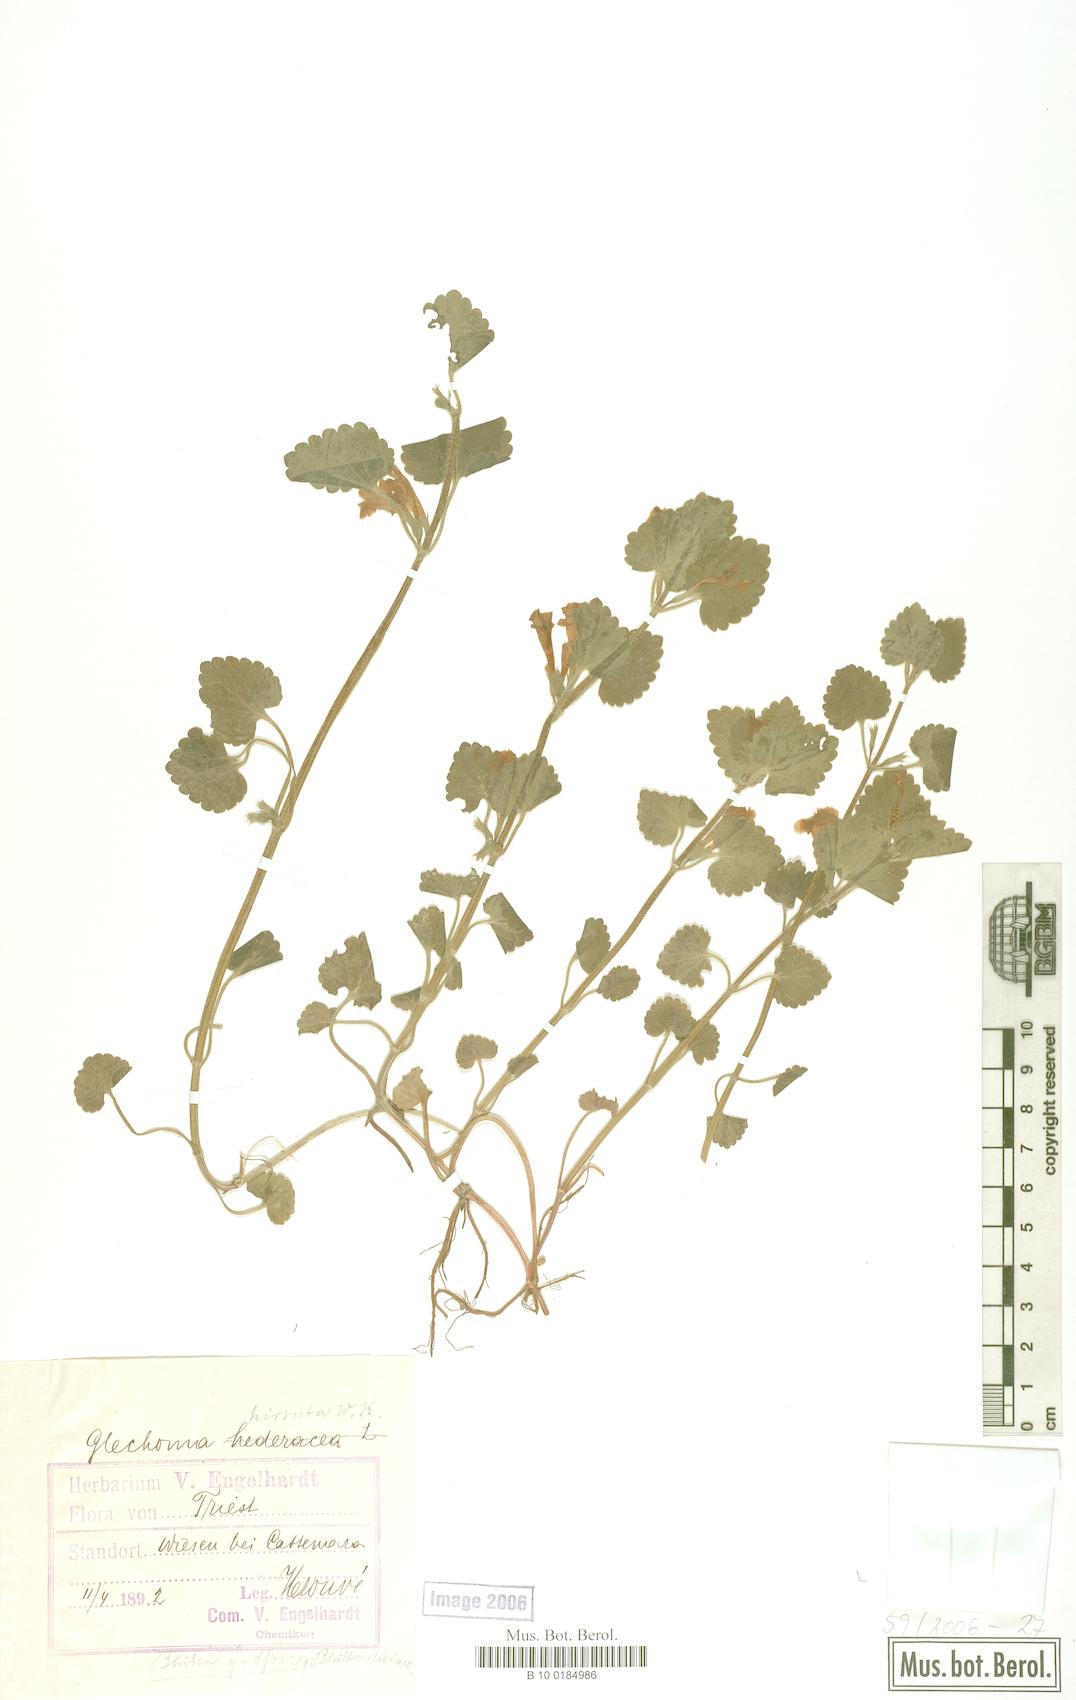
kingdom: Plantae
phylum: Tracheophyta
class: Magnoliopsida
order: Lamiales
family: Lamiaceae
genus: Glechoma
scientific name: Glechoma hirsuta
